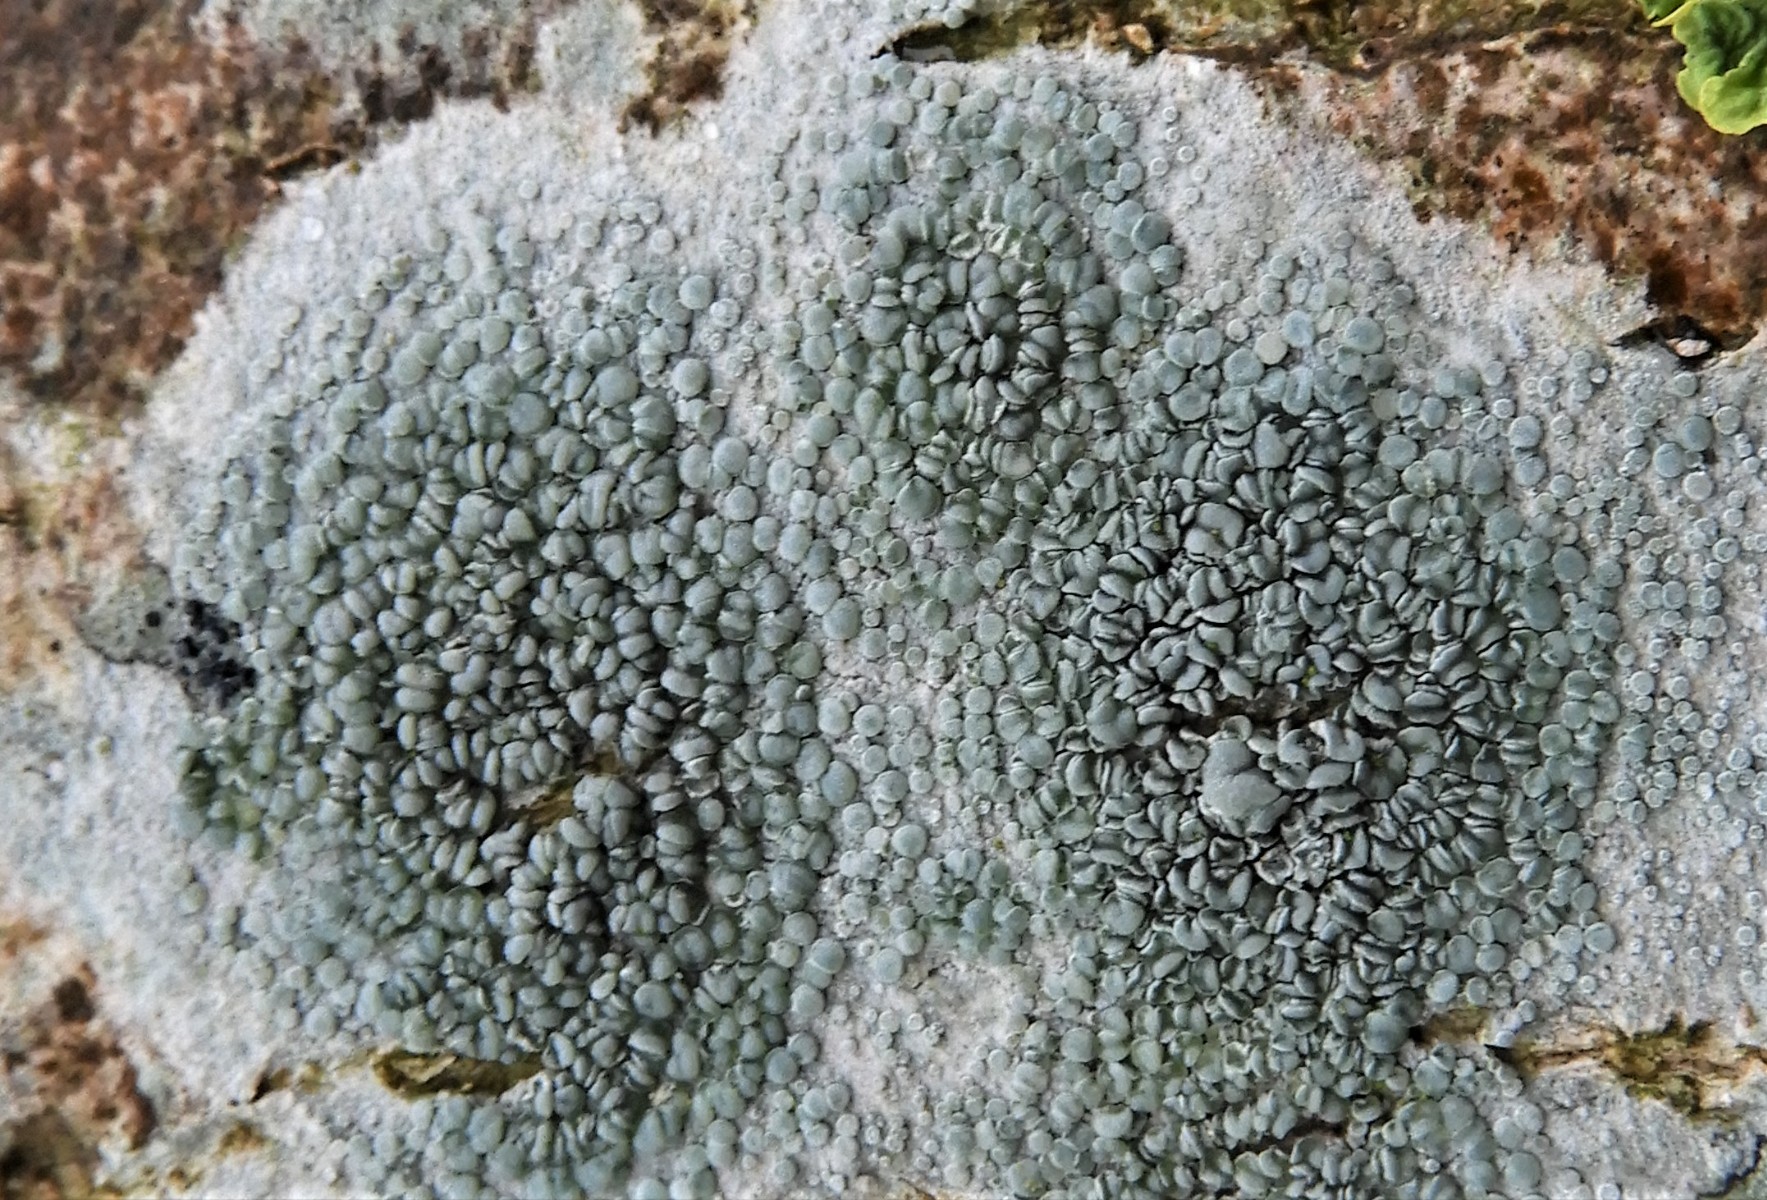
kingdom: Fungi
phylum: Ascomycota
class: Lecanoromycetes
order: Lecanorales
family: Lecanoraceae
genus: Lecanora
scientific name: Lecanora
